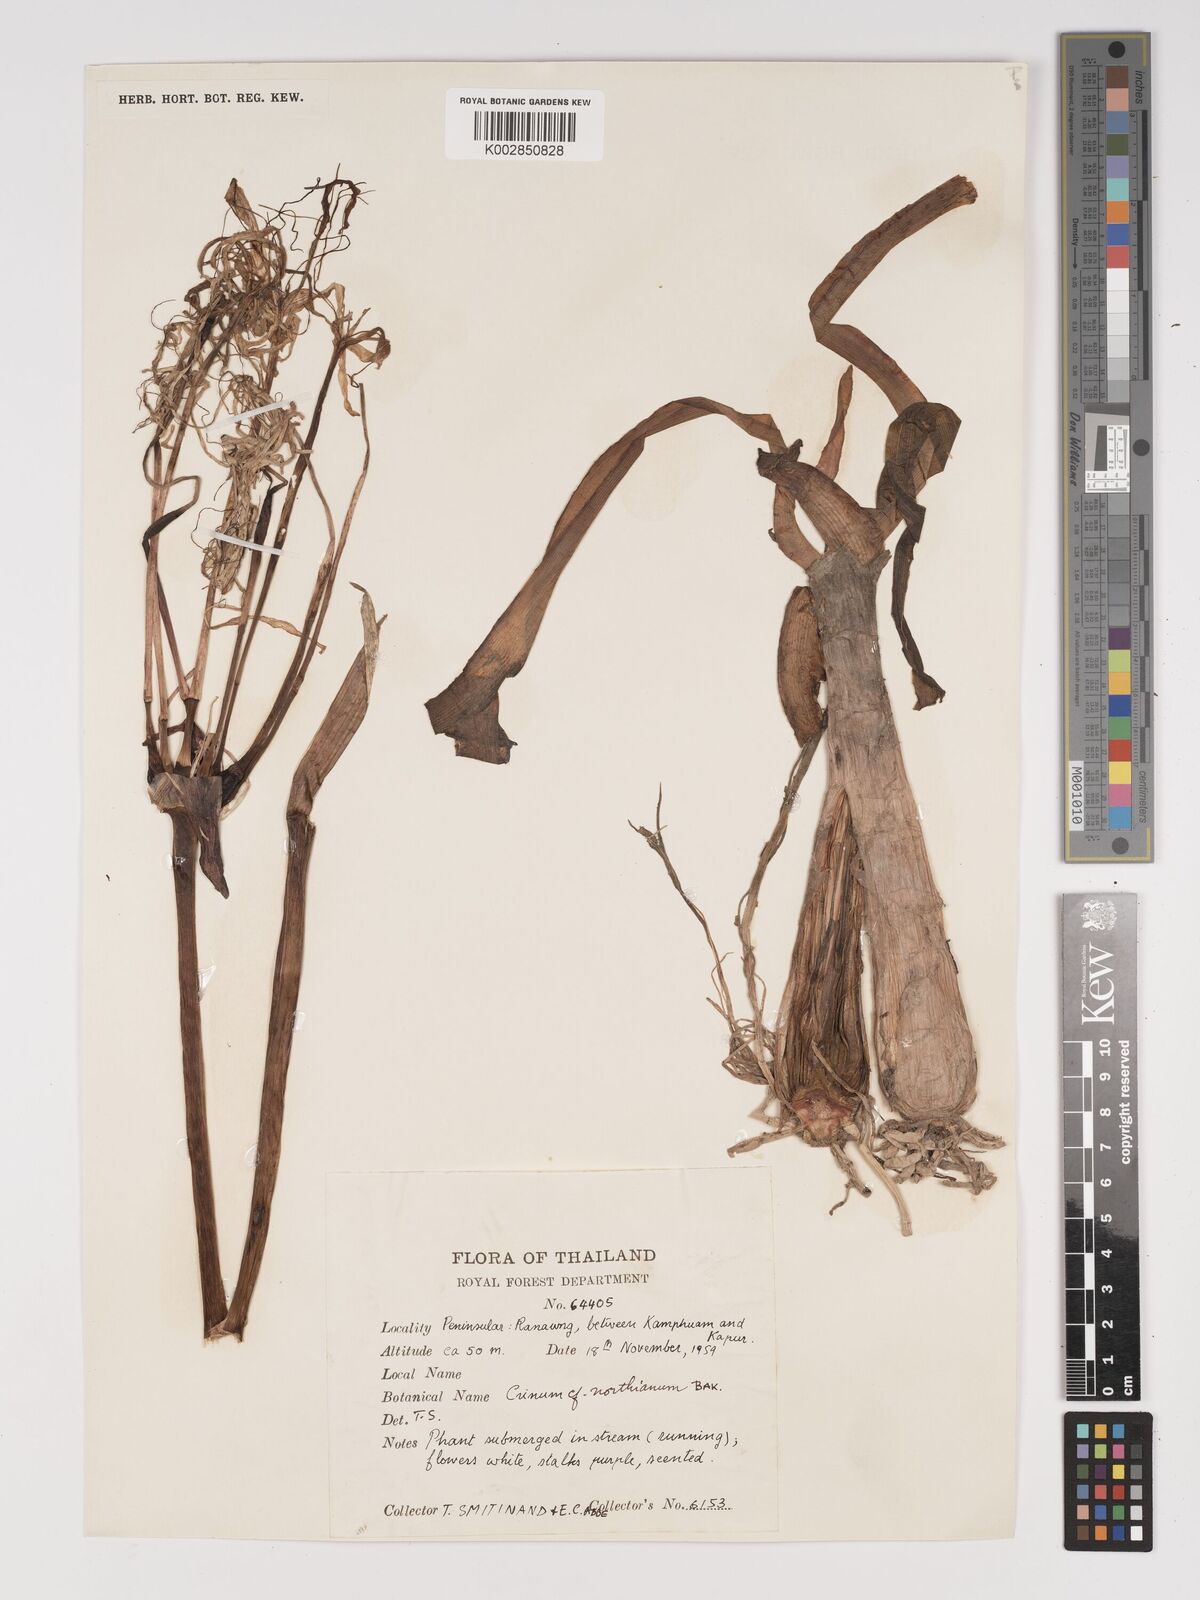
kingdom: Plantae
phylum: Tracheophyta
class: Liliopsida
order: Asparagales
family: Amaryllidaceae
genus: Crinum
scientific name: Crinum asiaticum
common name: Poisonbulb
